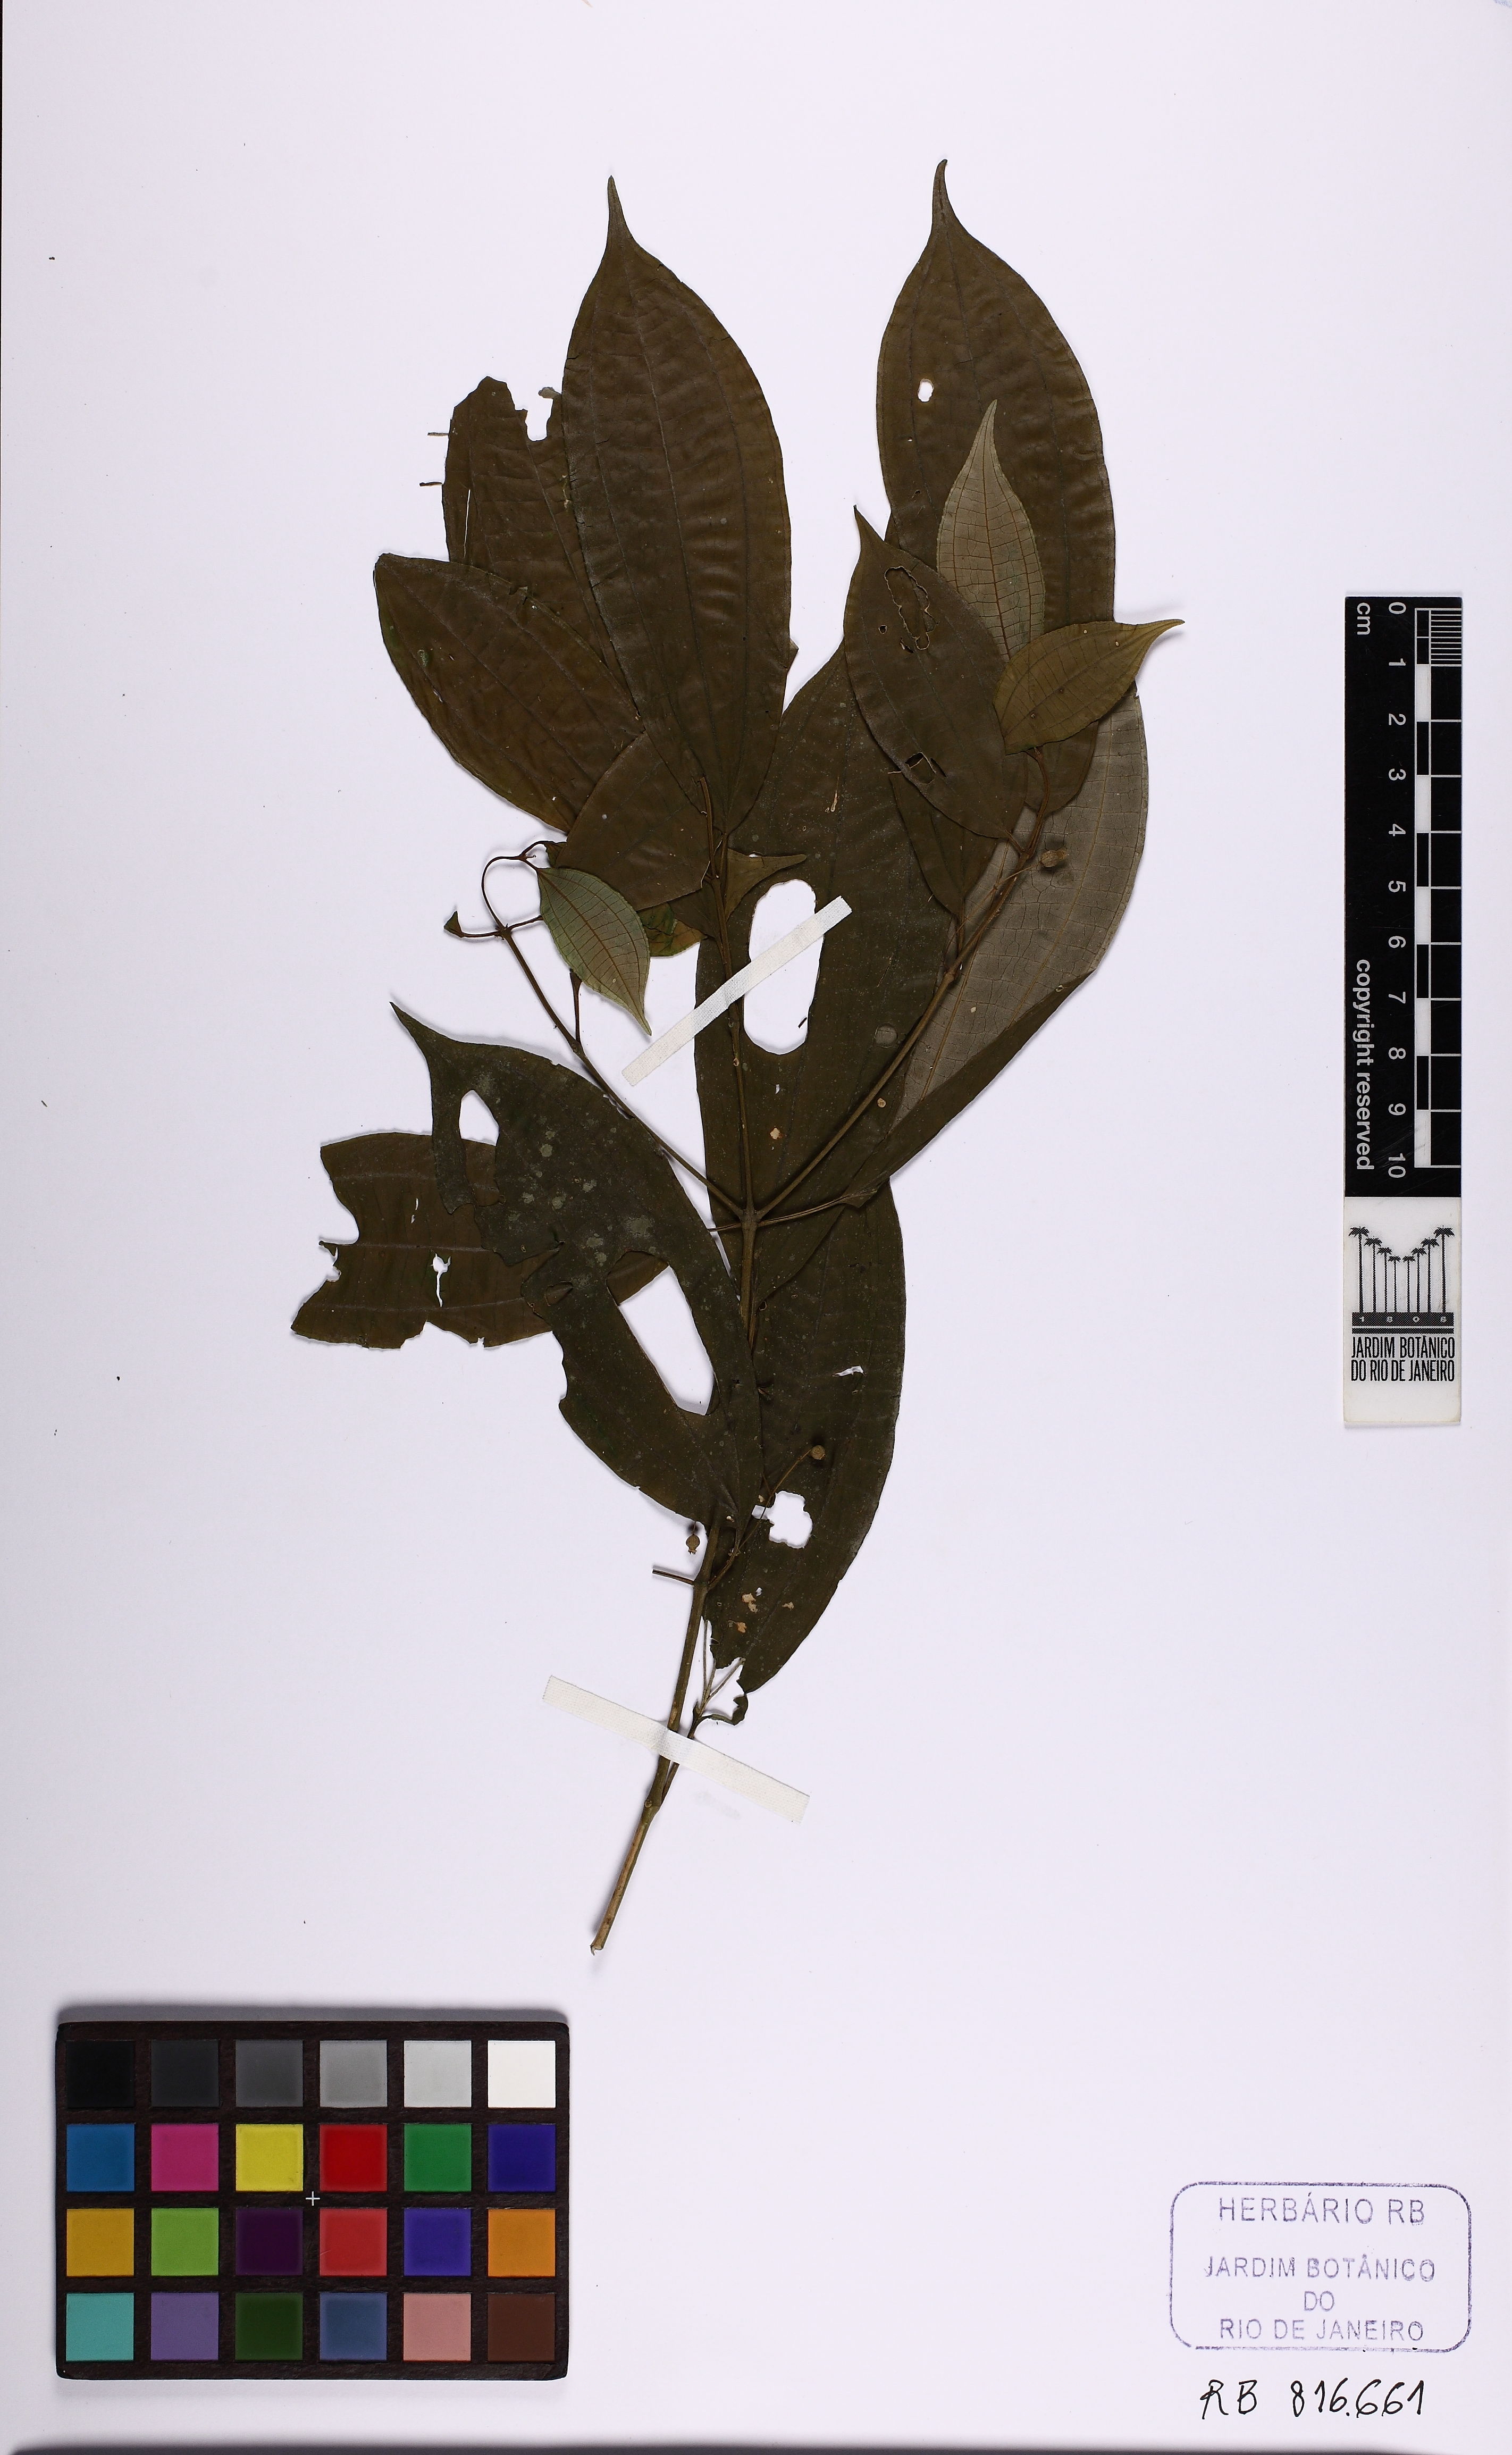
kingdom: Plantae
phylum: Tracheophyta
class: Magnoliopsida
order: Myrtales
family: Melastomataceae
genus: Miconia
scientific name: Miconia capilliflora
